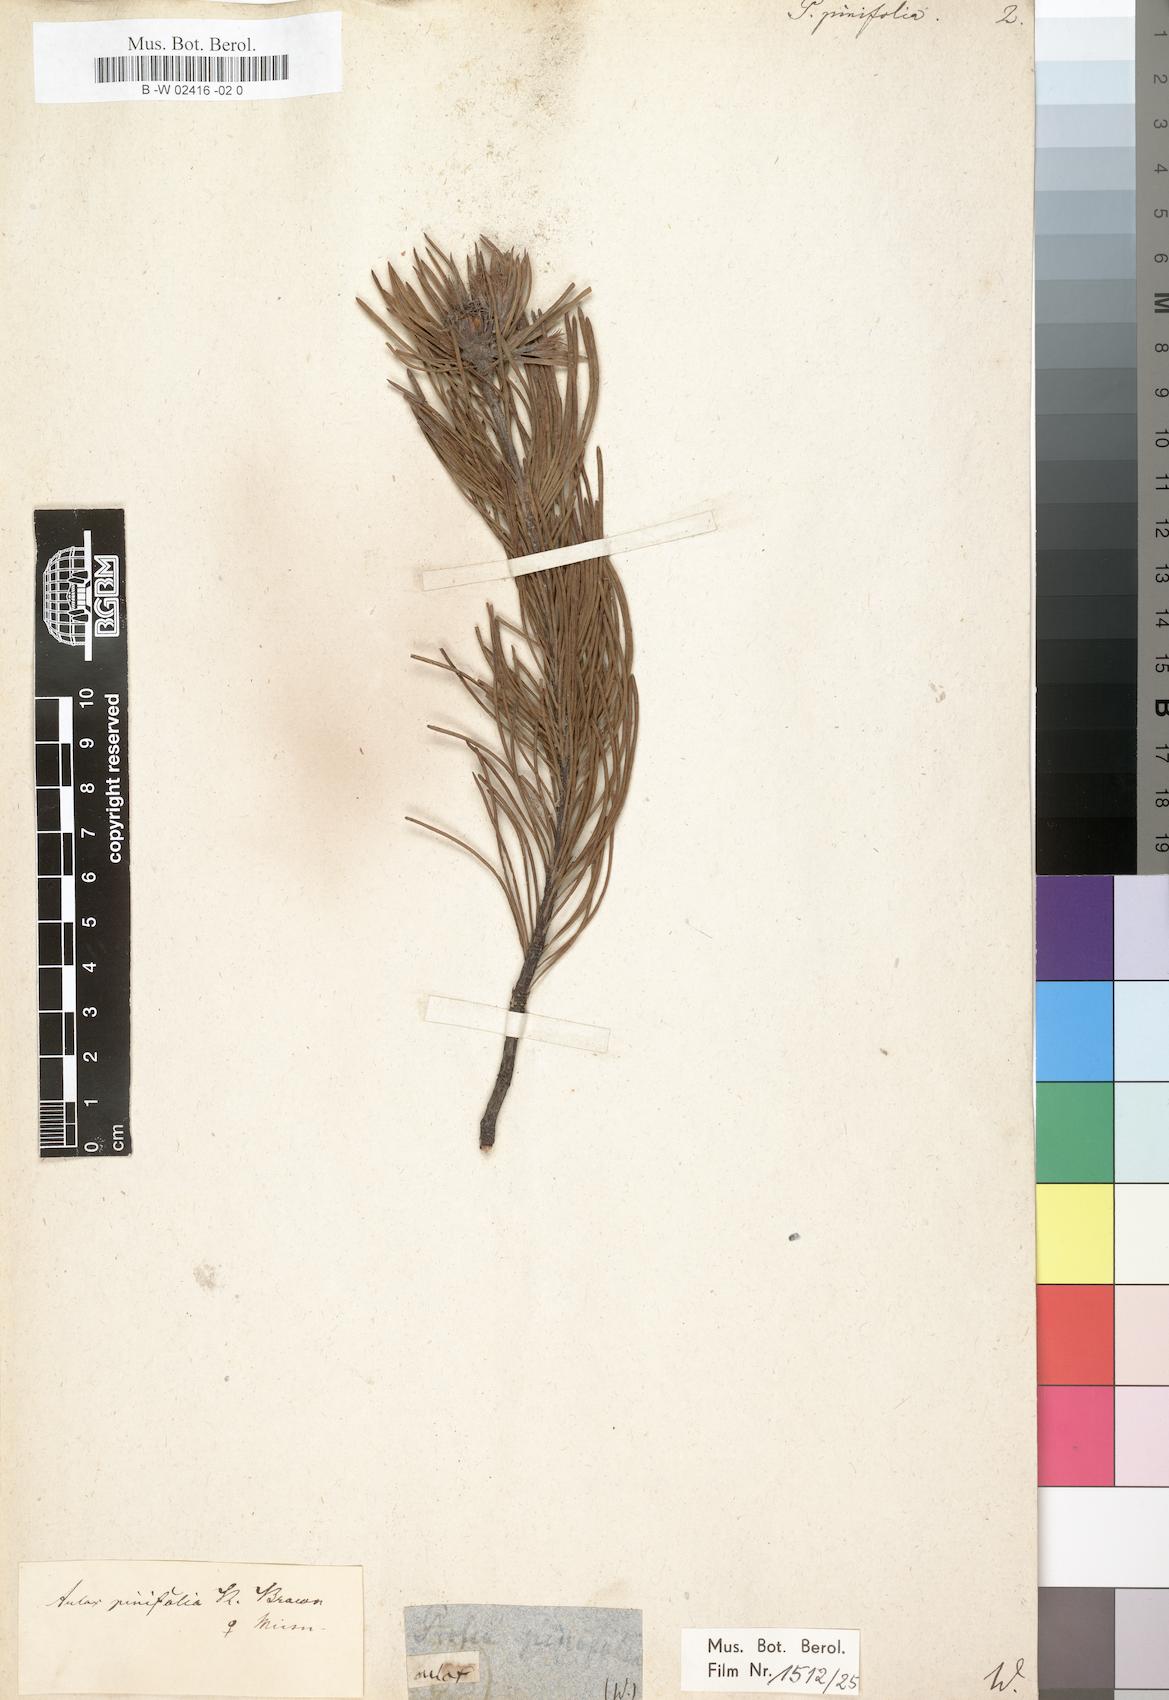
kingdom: Plantae
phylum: Tracheophyta
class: Magnoliopsida
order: Proteales
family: Proteaceae
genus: Aulax
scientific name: Aulax cancellata
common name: Channel-leaf featherbush
